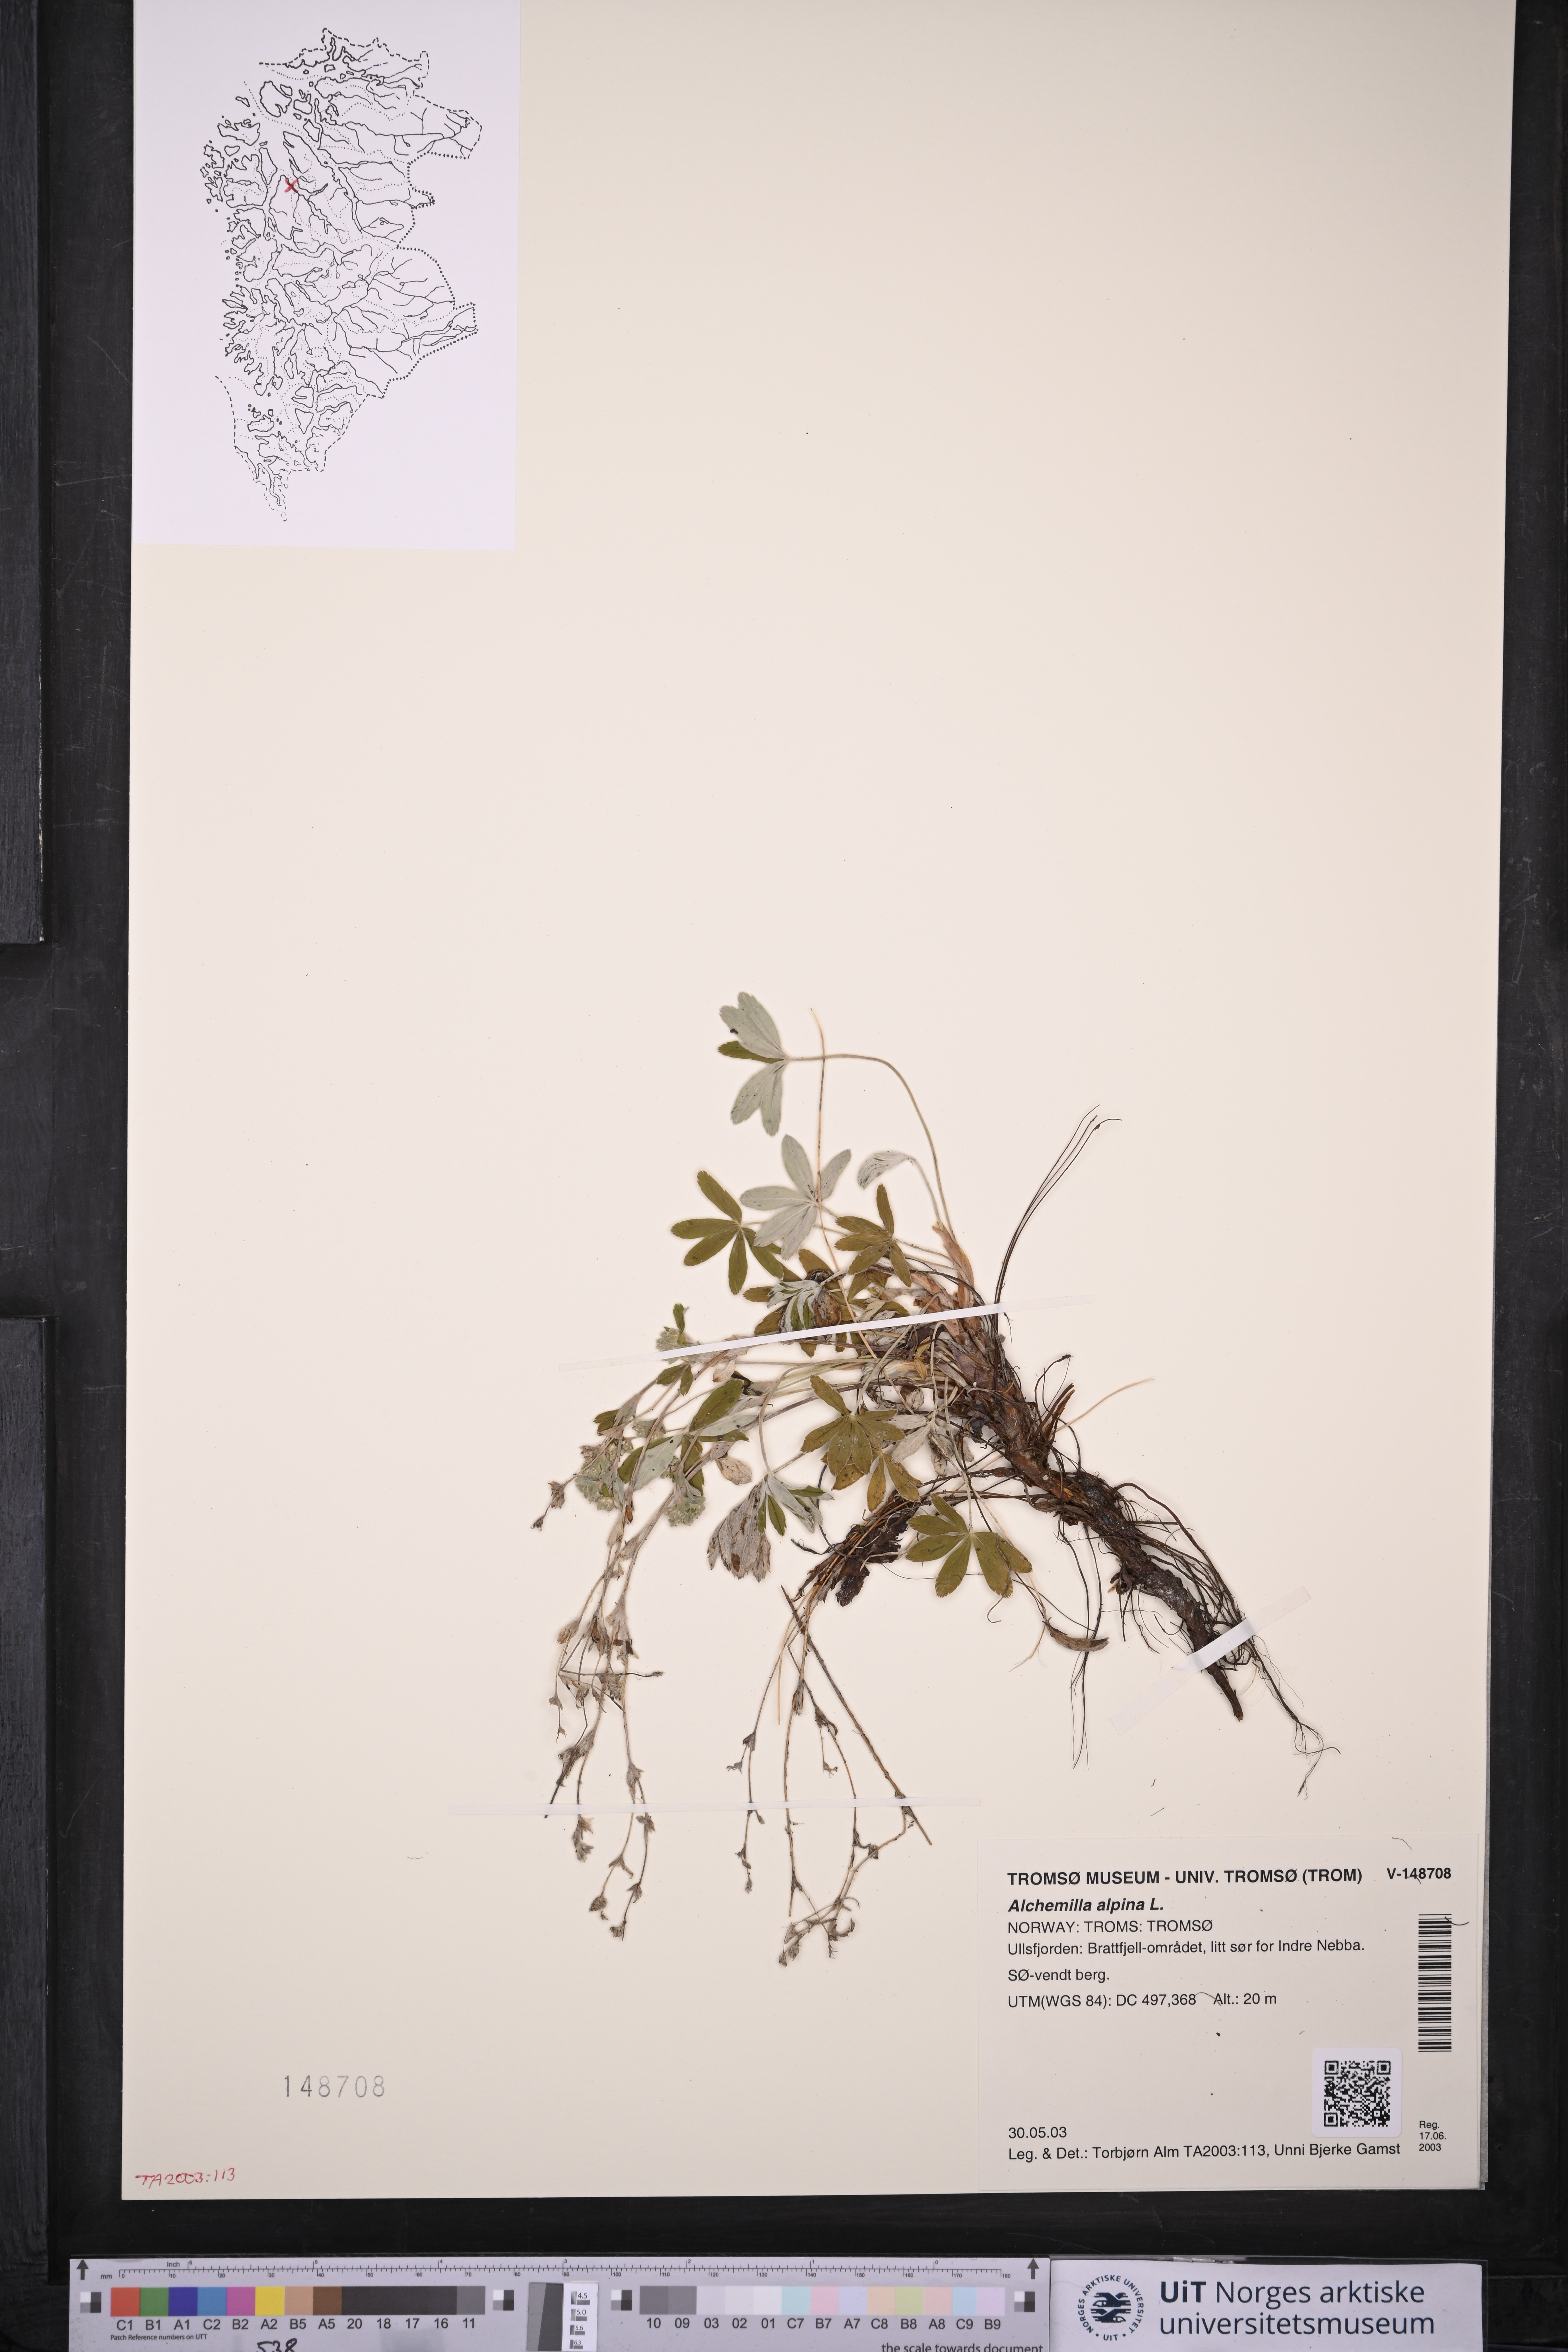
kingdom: Plantae
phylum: Tracheophyta
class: Magnoliopsida
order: Rosales
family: Rosaceae
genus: Alchemilla
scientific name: Alchemilla alpina
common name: Alpine lady's-mantle
